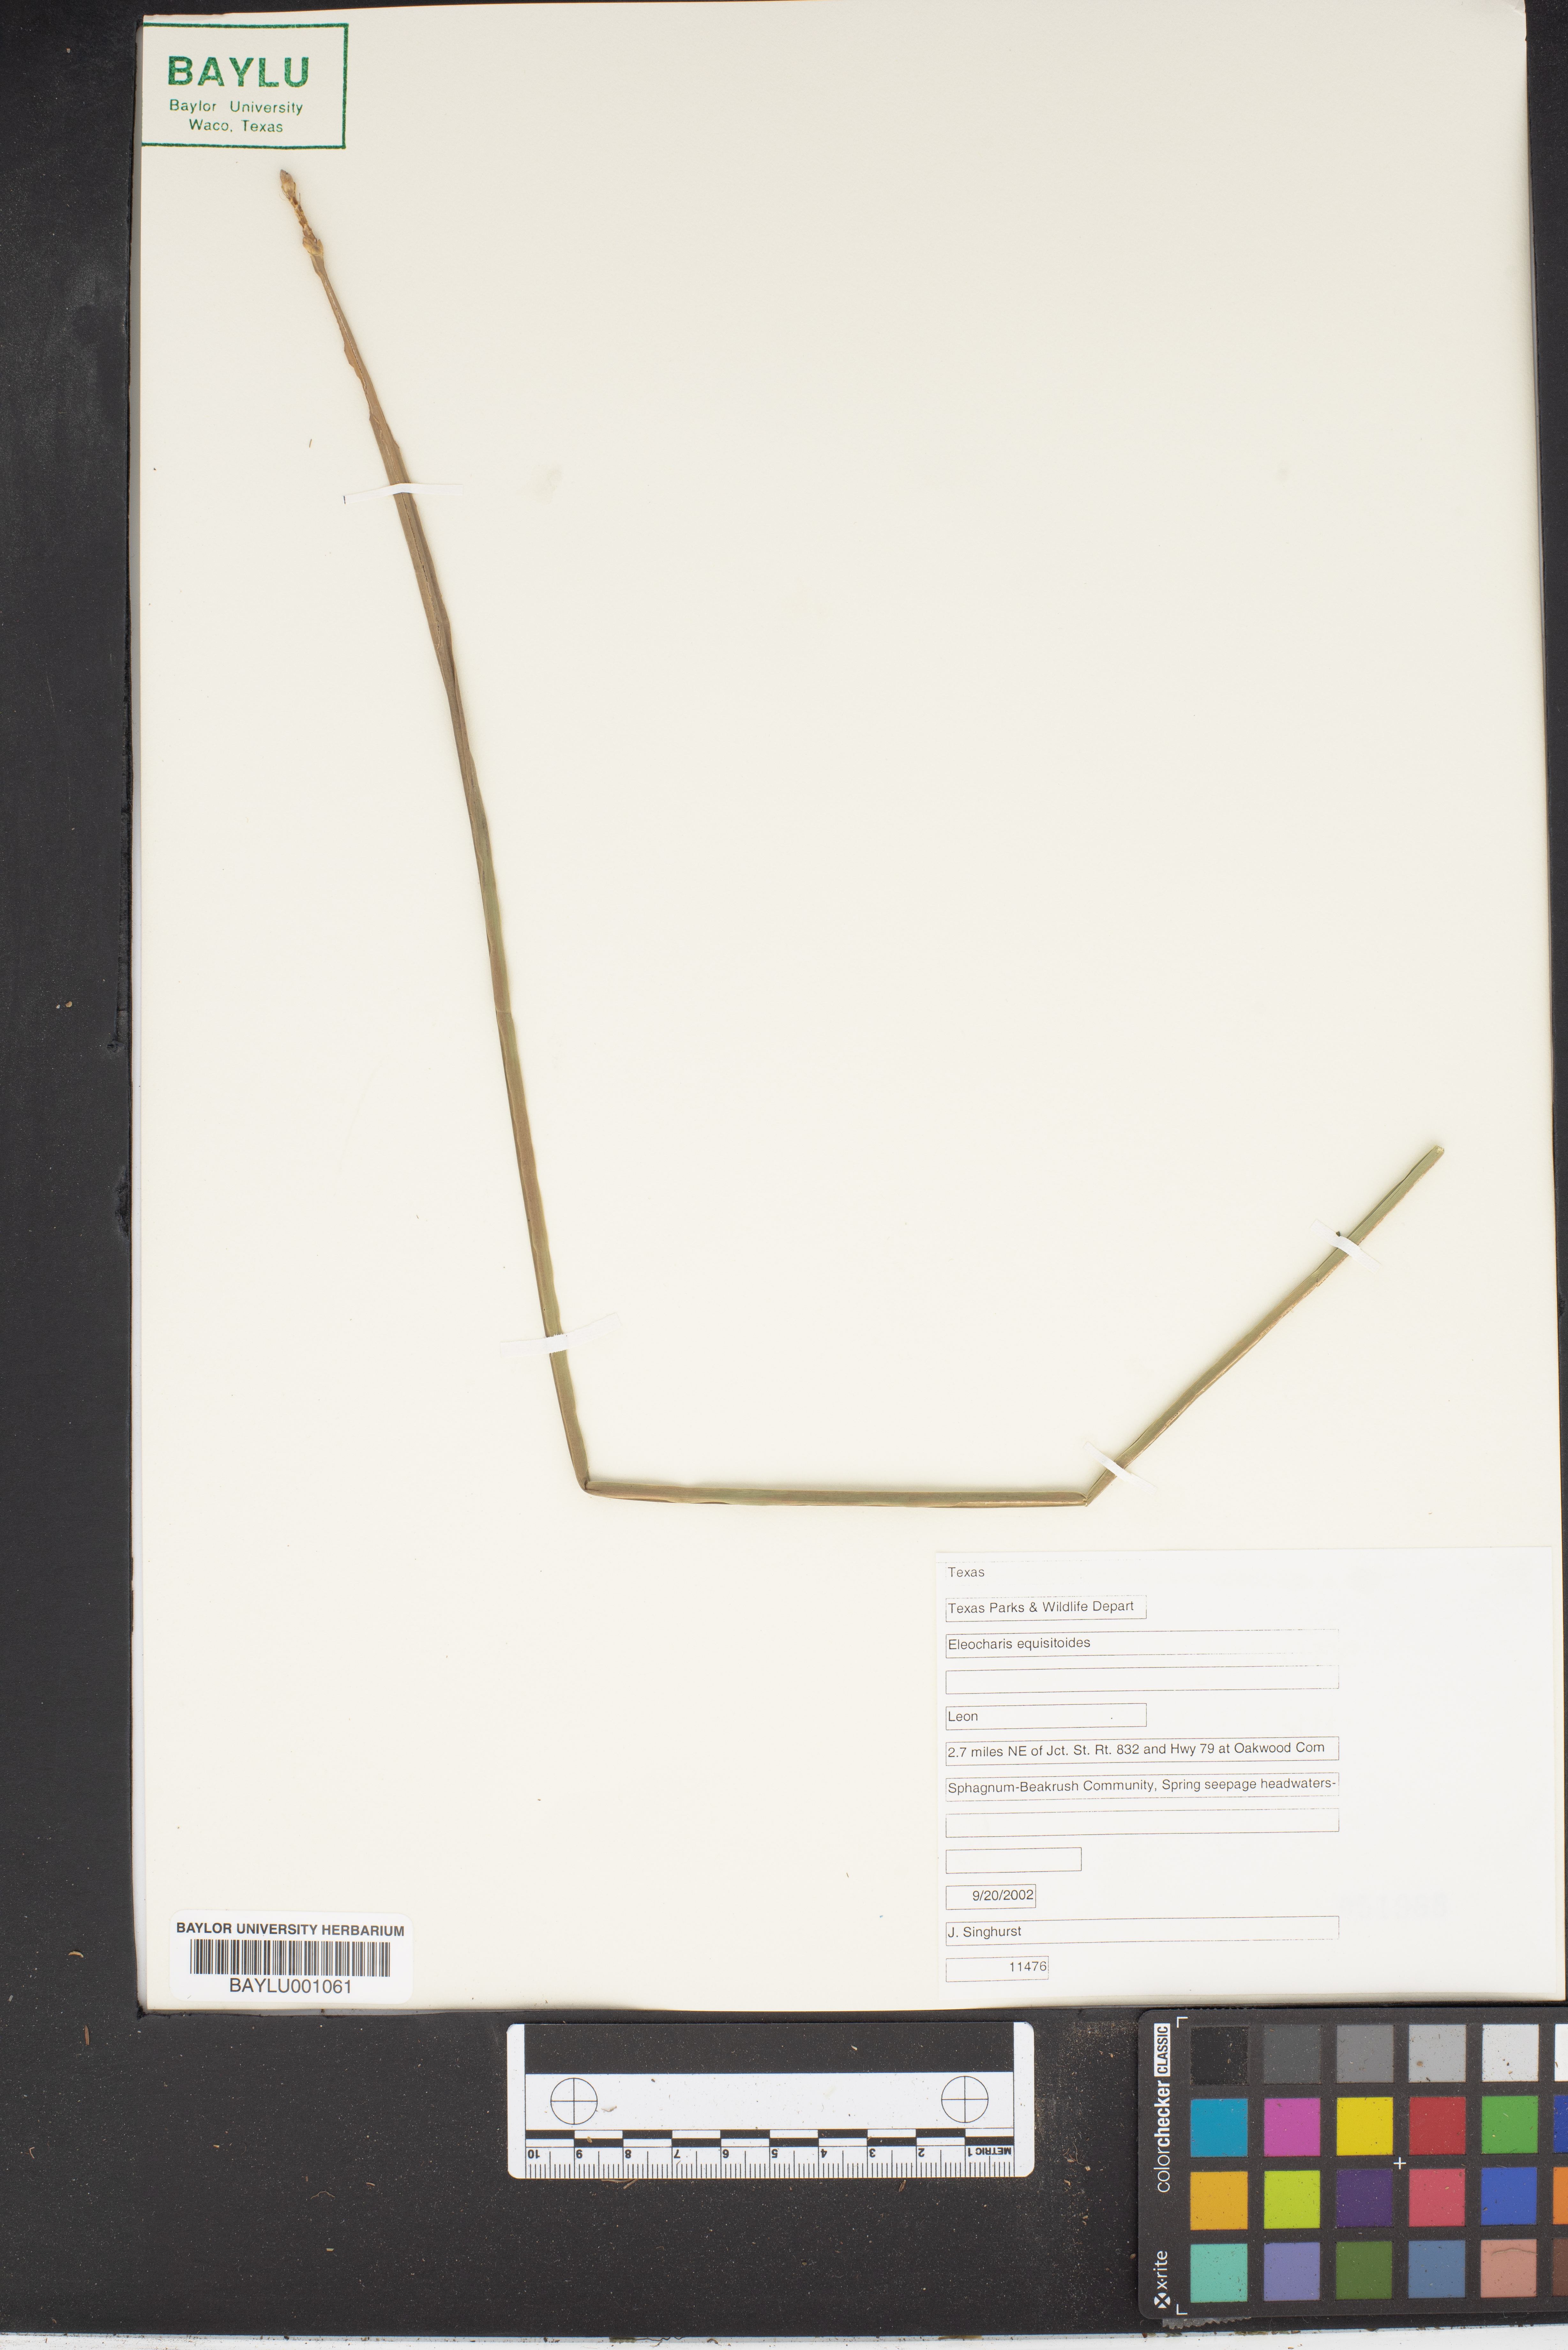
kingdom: Plantae
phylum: Tracheophyta
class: Liliopsida
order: Poales
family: Cyperaceae
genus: Eleocharis
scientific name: Eleocharis equisetoides
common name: Horsetail spike-rush
